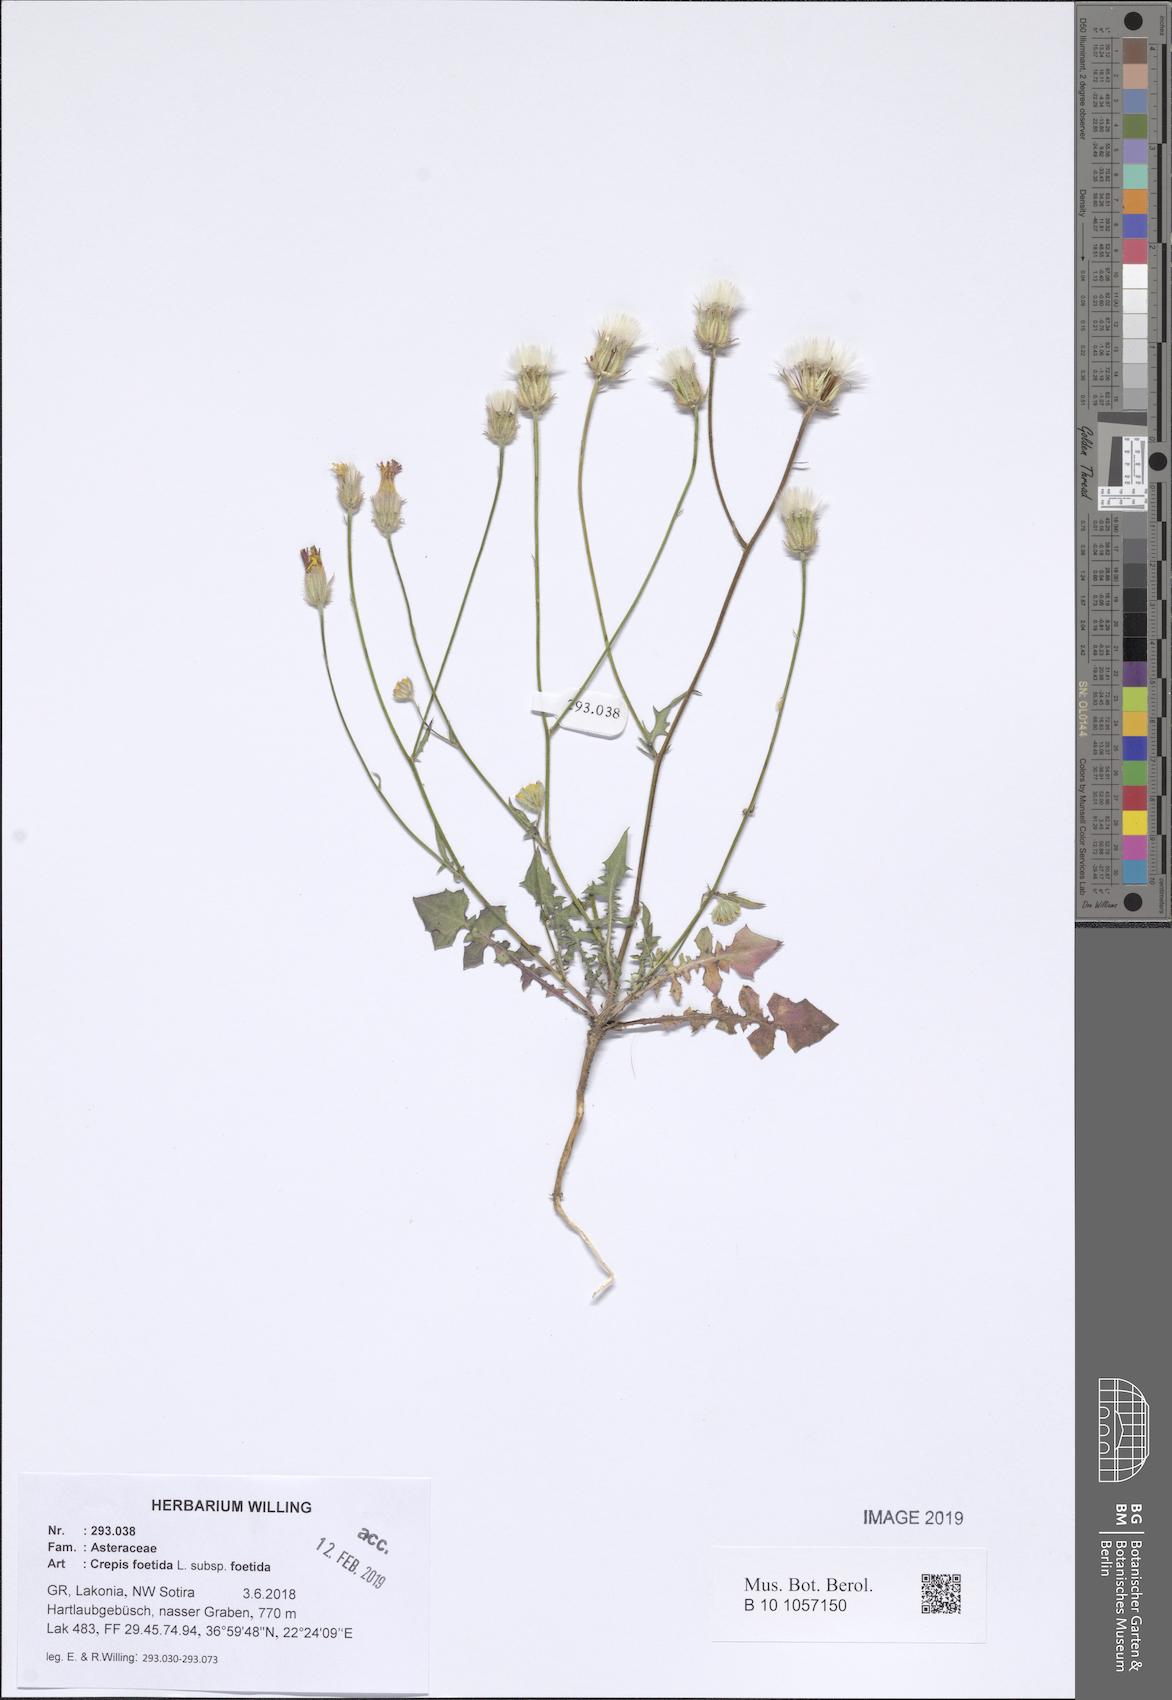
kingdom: Plantae
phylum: Tracheophyta
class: Magnoliopsida
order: Asterales
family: Asteraceae
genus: Crepis
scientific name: Crepis foetida
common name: Stinking hawk's-beard
